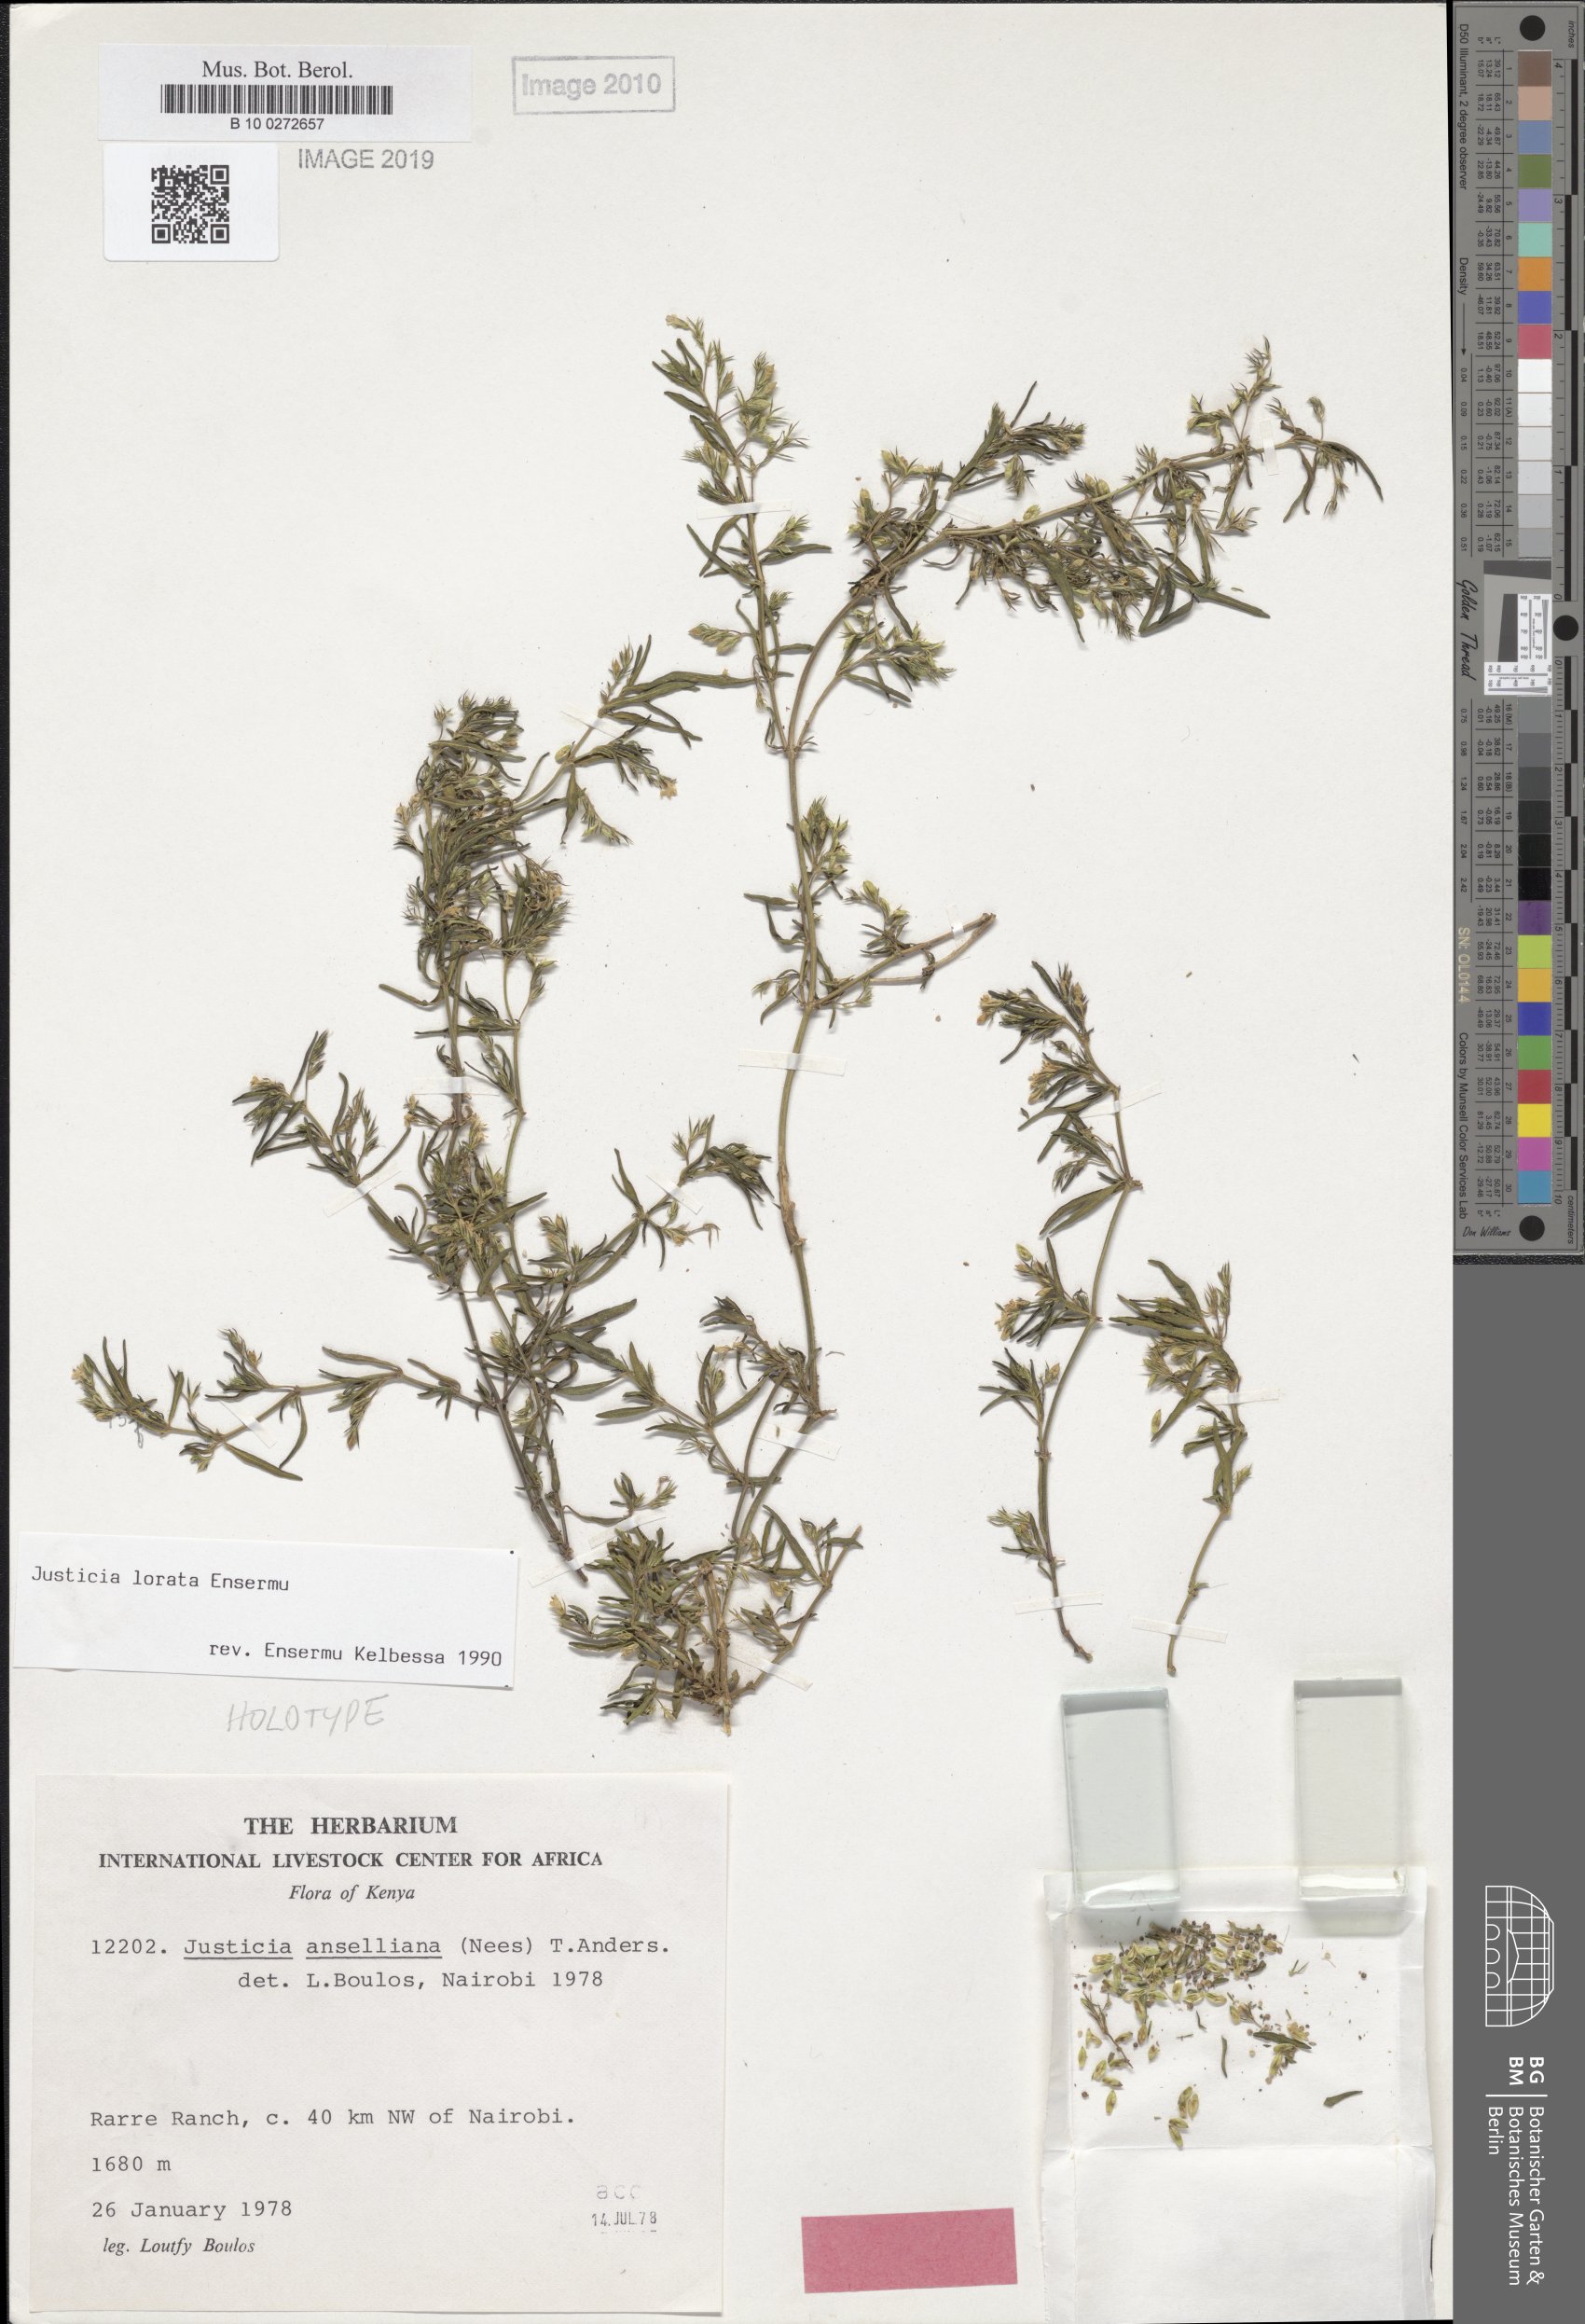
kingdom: Plantae
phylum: Tracheophyta
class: Magnoliopsida
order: Lamiales
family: Acanthaceae
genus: Justicia
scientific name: Justicia lorata
